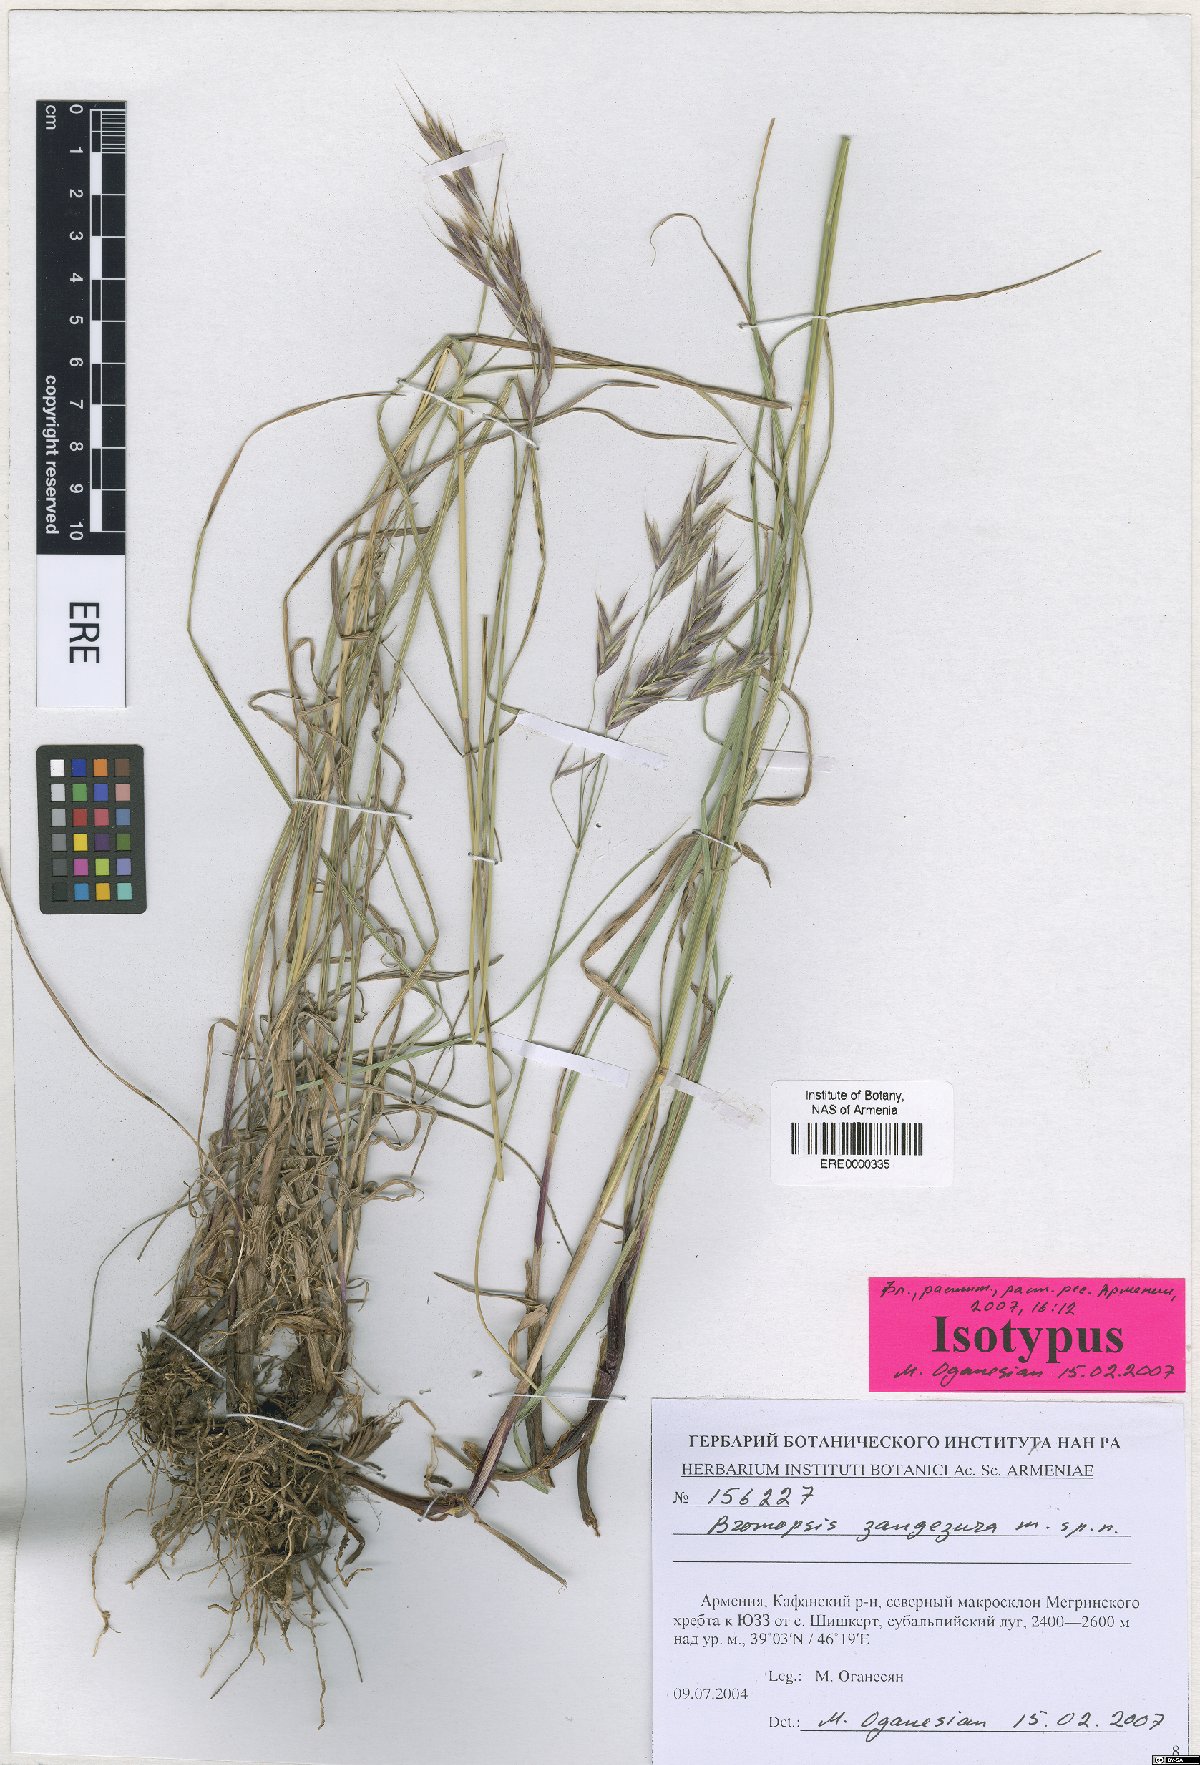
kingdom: Plantae
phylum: Tracheophyta
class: Liliopsida
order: Poales
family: Poaceae
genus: Bromus
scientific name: Bromus erectus
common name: Erect brome
